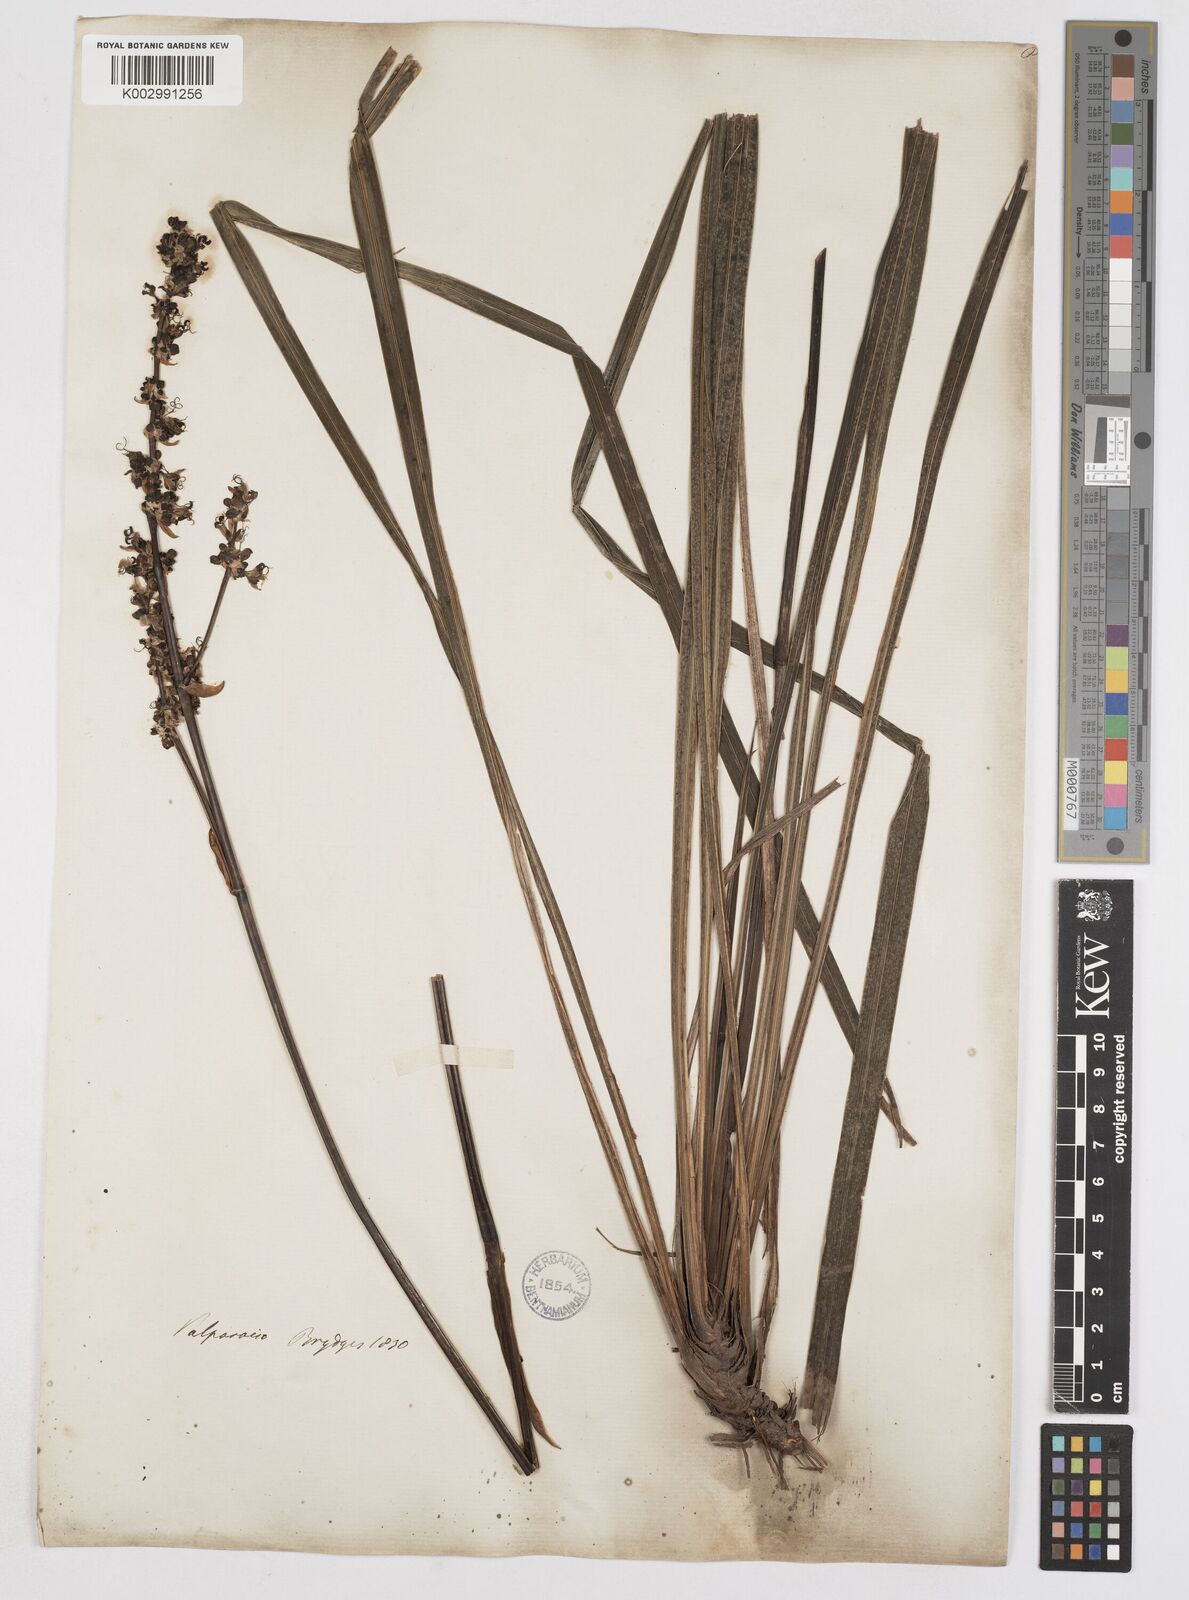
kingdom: Plantae
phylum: Tracheophyta
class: Liliopsida
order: Asparagales
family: Iridaceae
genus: Libertia
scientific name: Libertia sessiliflora
